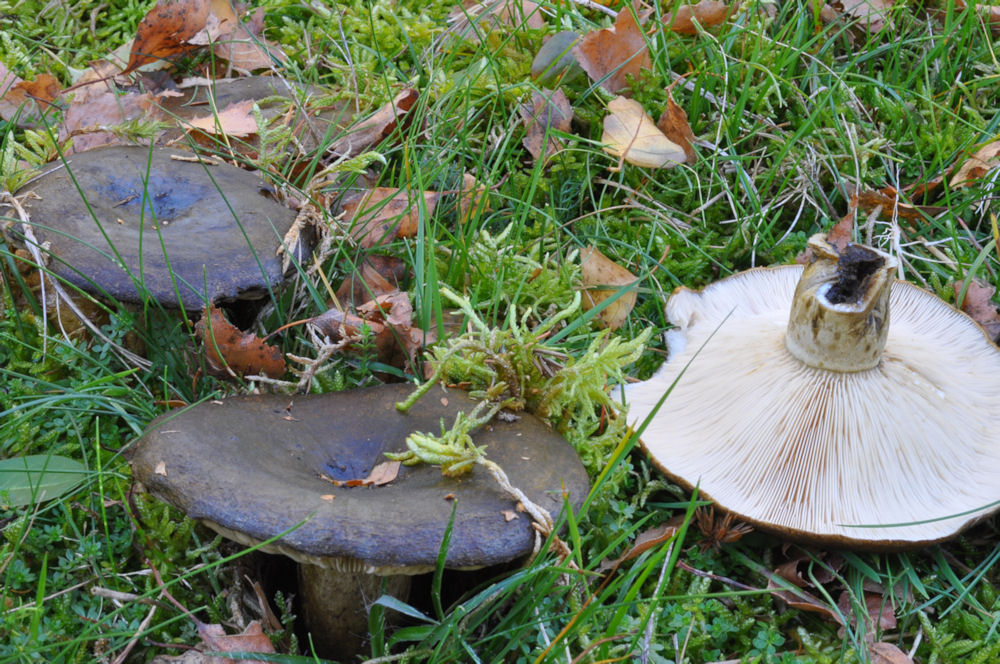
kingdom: Fungi
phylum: Basidiomycota
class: Agaricomycetes
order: Russulales
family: Russulaceae
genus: Lactarius
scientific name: Lactarius necator
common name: manddraber-mælkehat
